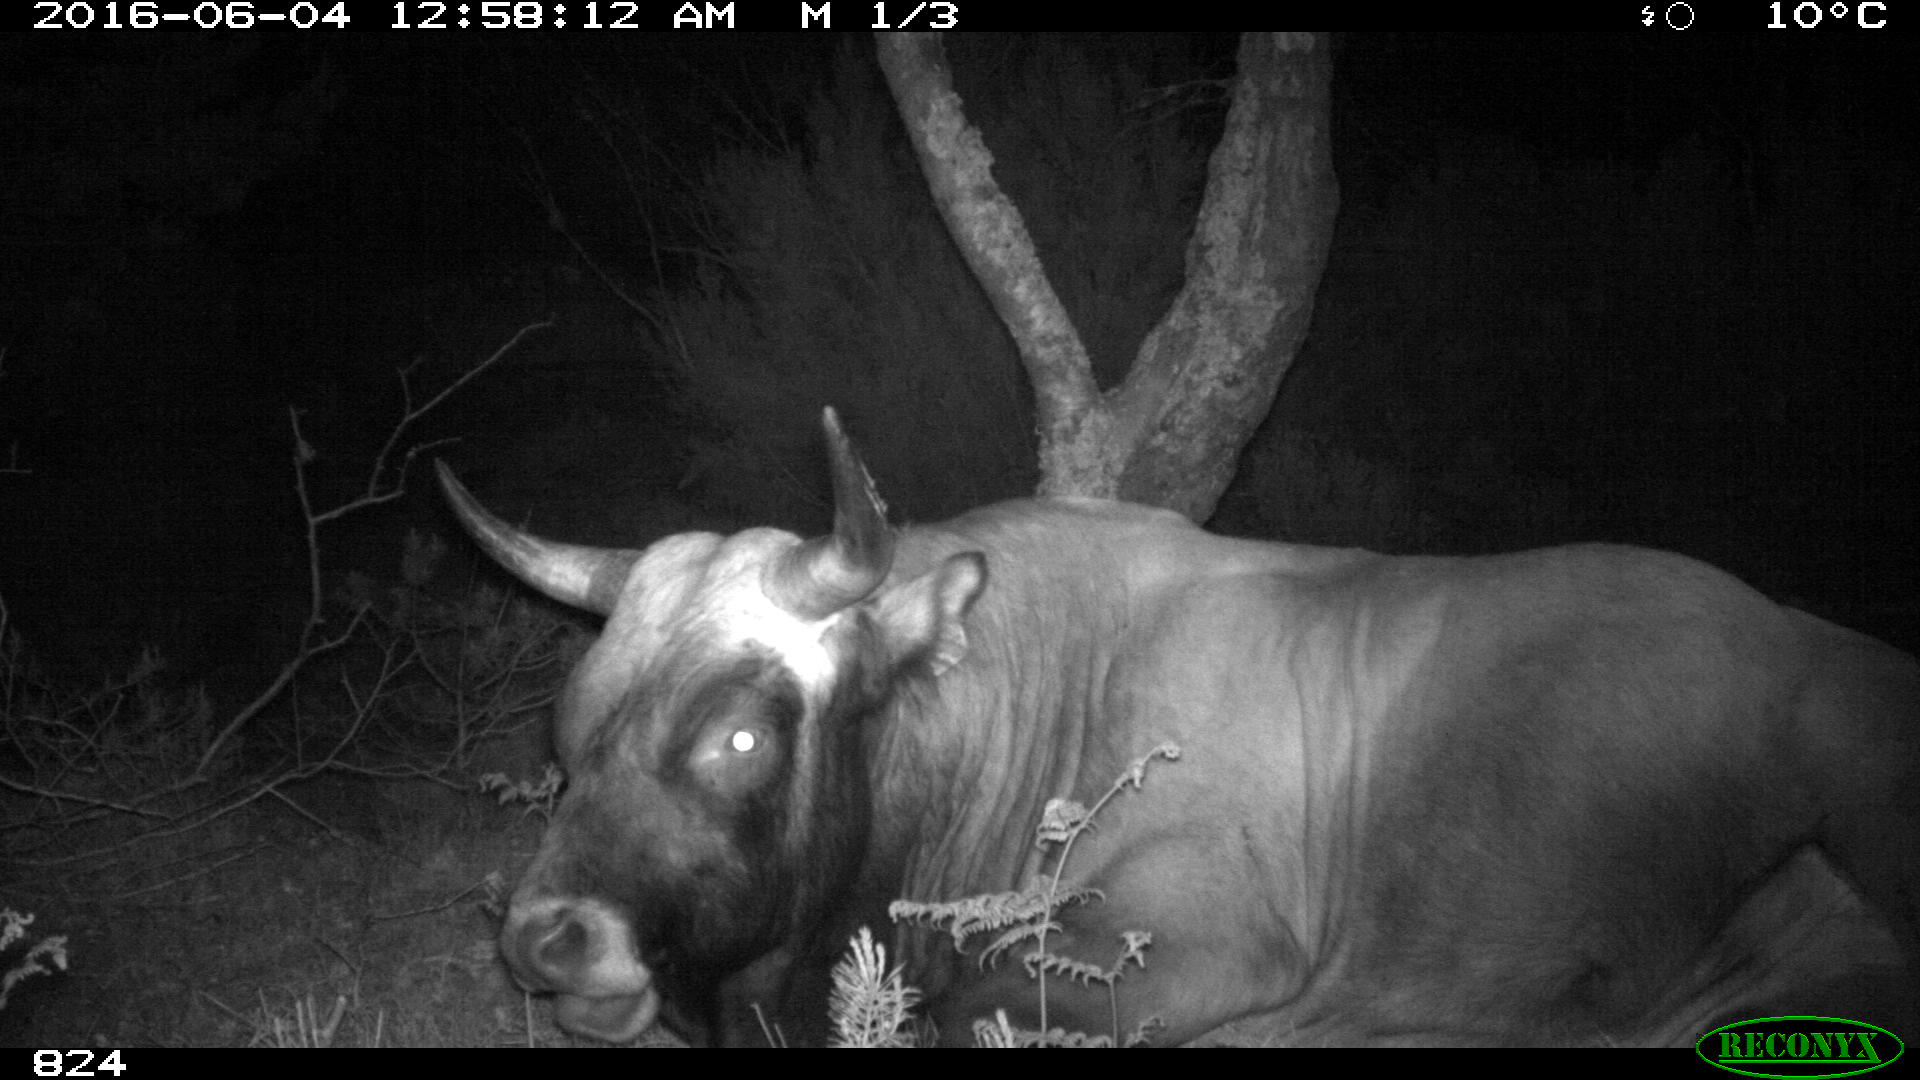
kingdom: Animalia
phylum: Chordata
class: Mammalia
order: Artiodactyla
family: Bovidae
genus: Bos
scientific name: Bos taurus
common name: Domesticated cattle
